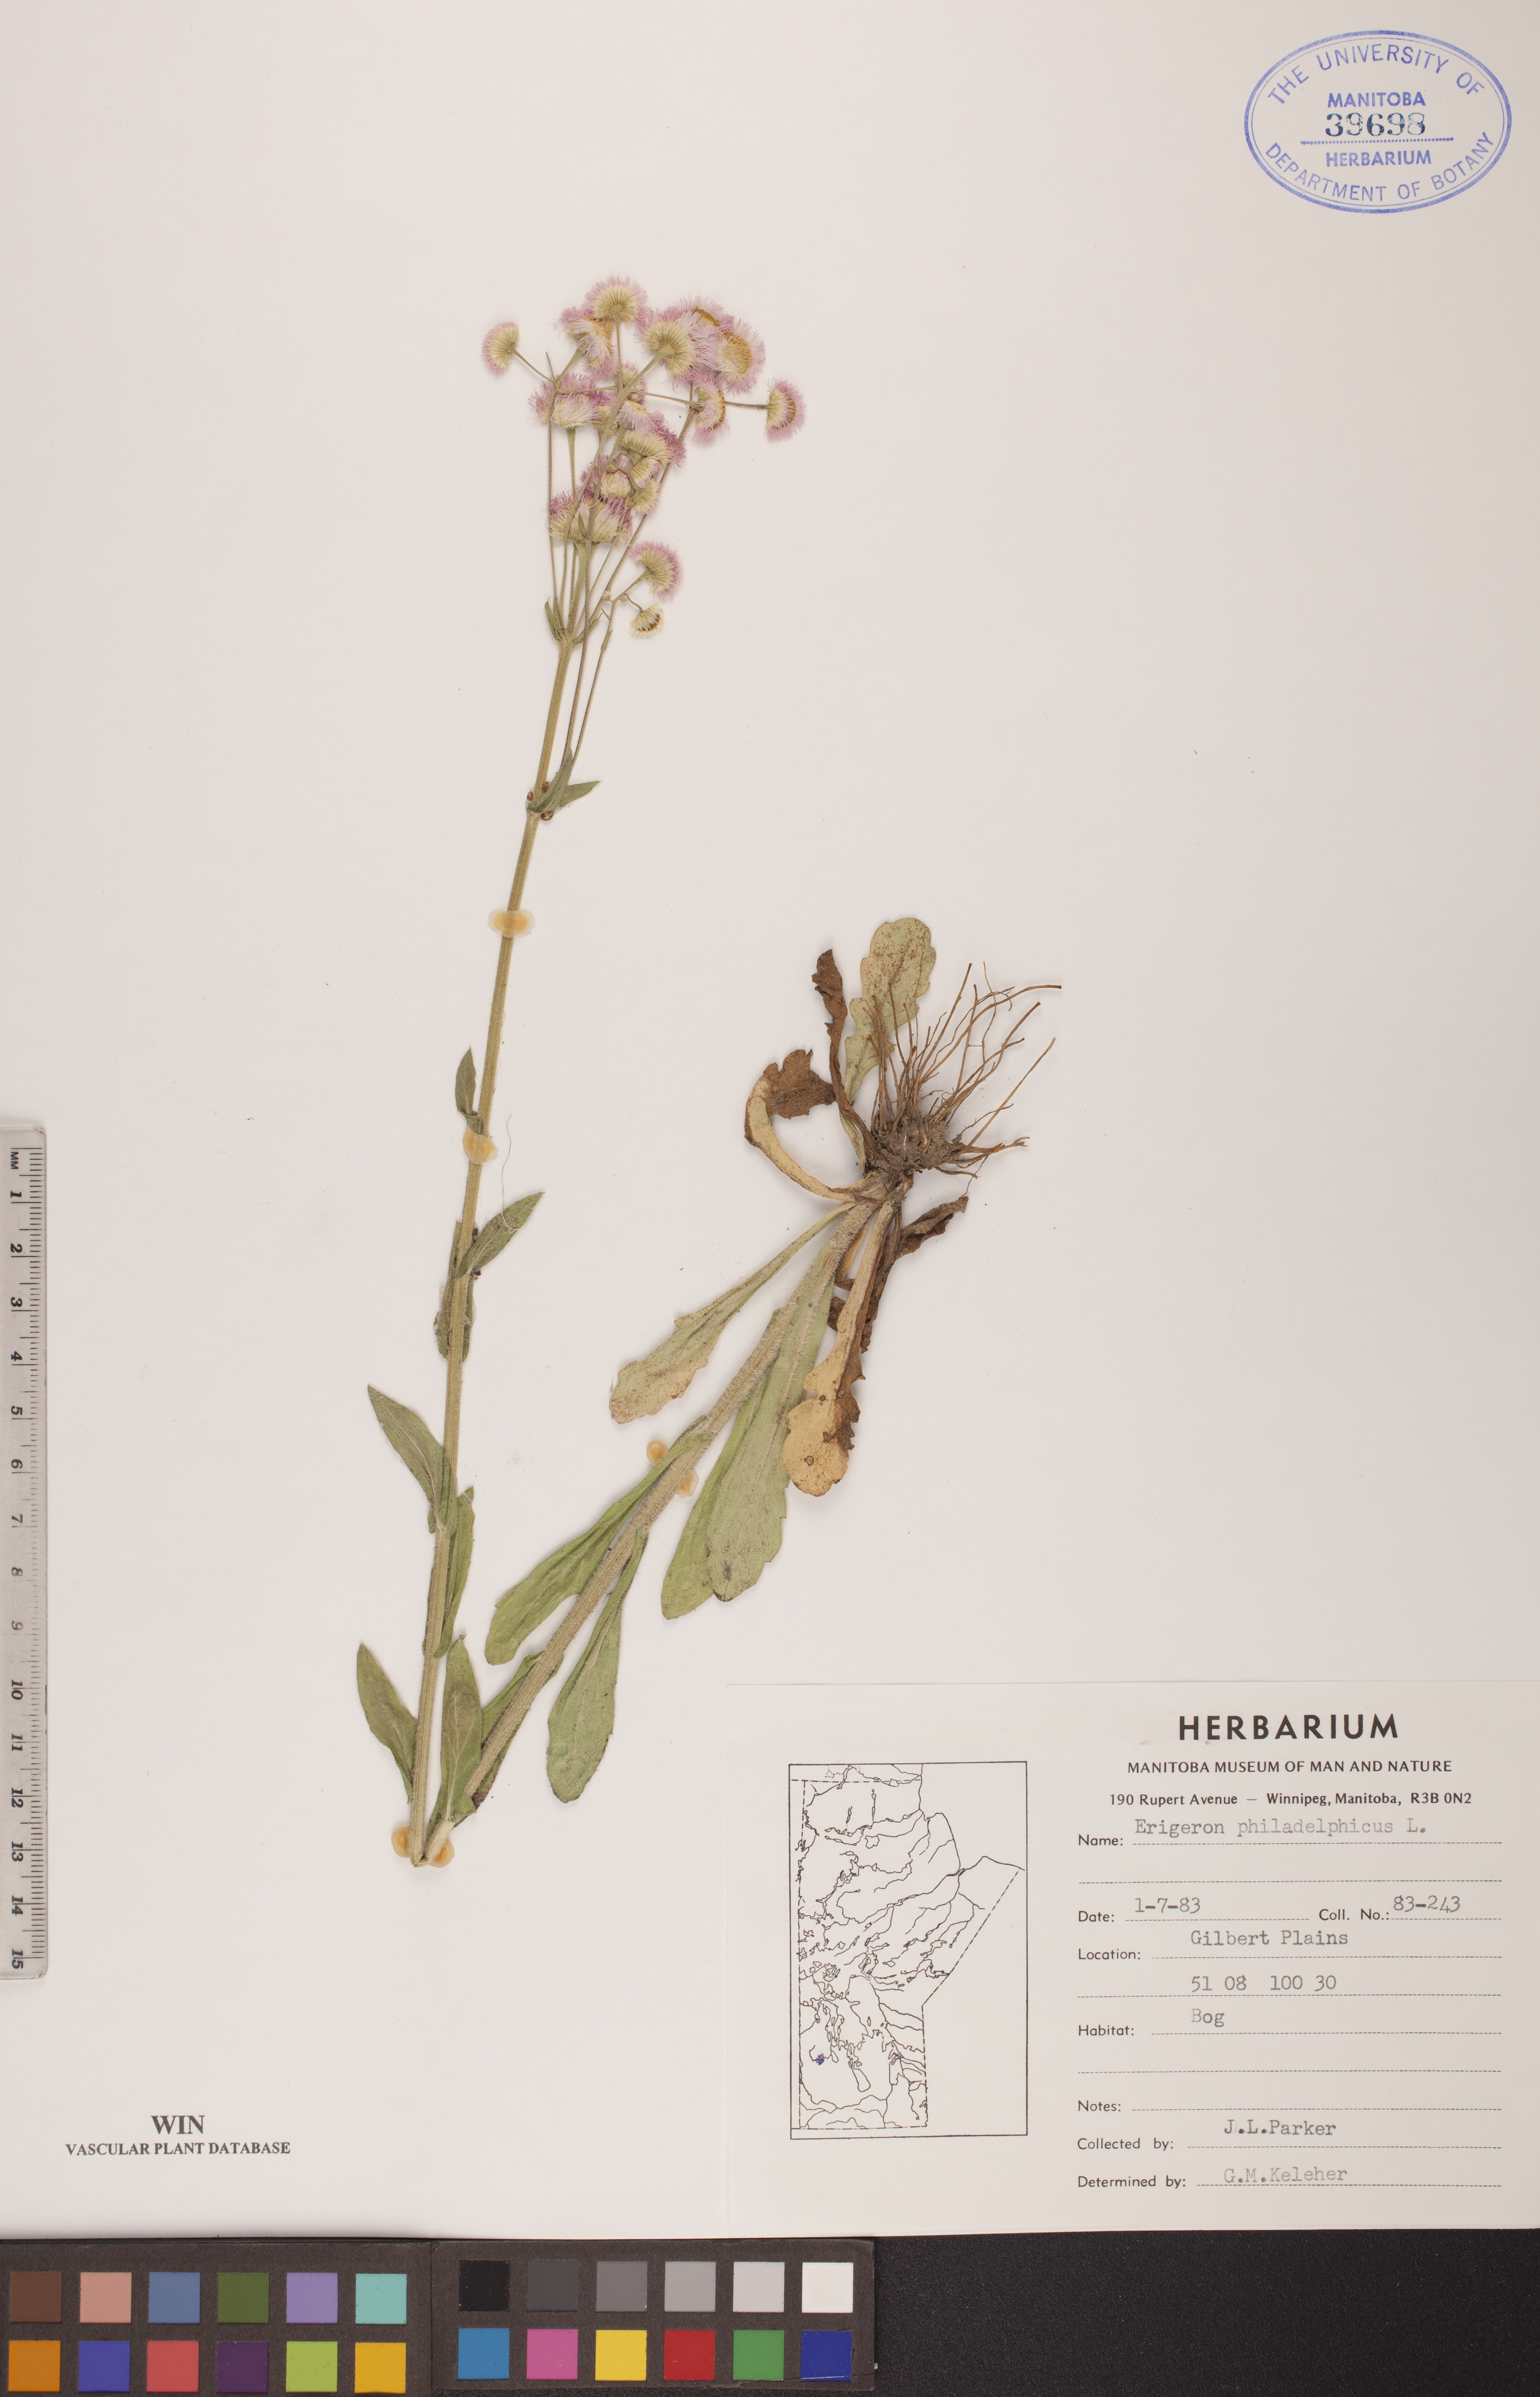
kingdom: Plantae
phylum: Tracheophyta
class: Magnoliopsida
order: Asterales
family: Asteraceae
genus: Erigeron
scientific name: Erigeron philadelphicus
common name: Robin's-plantain
